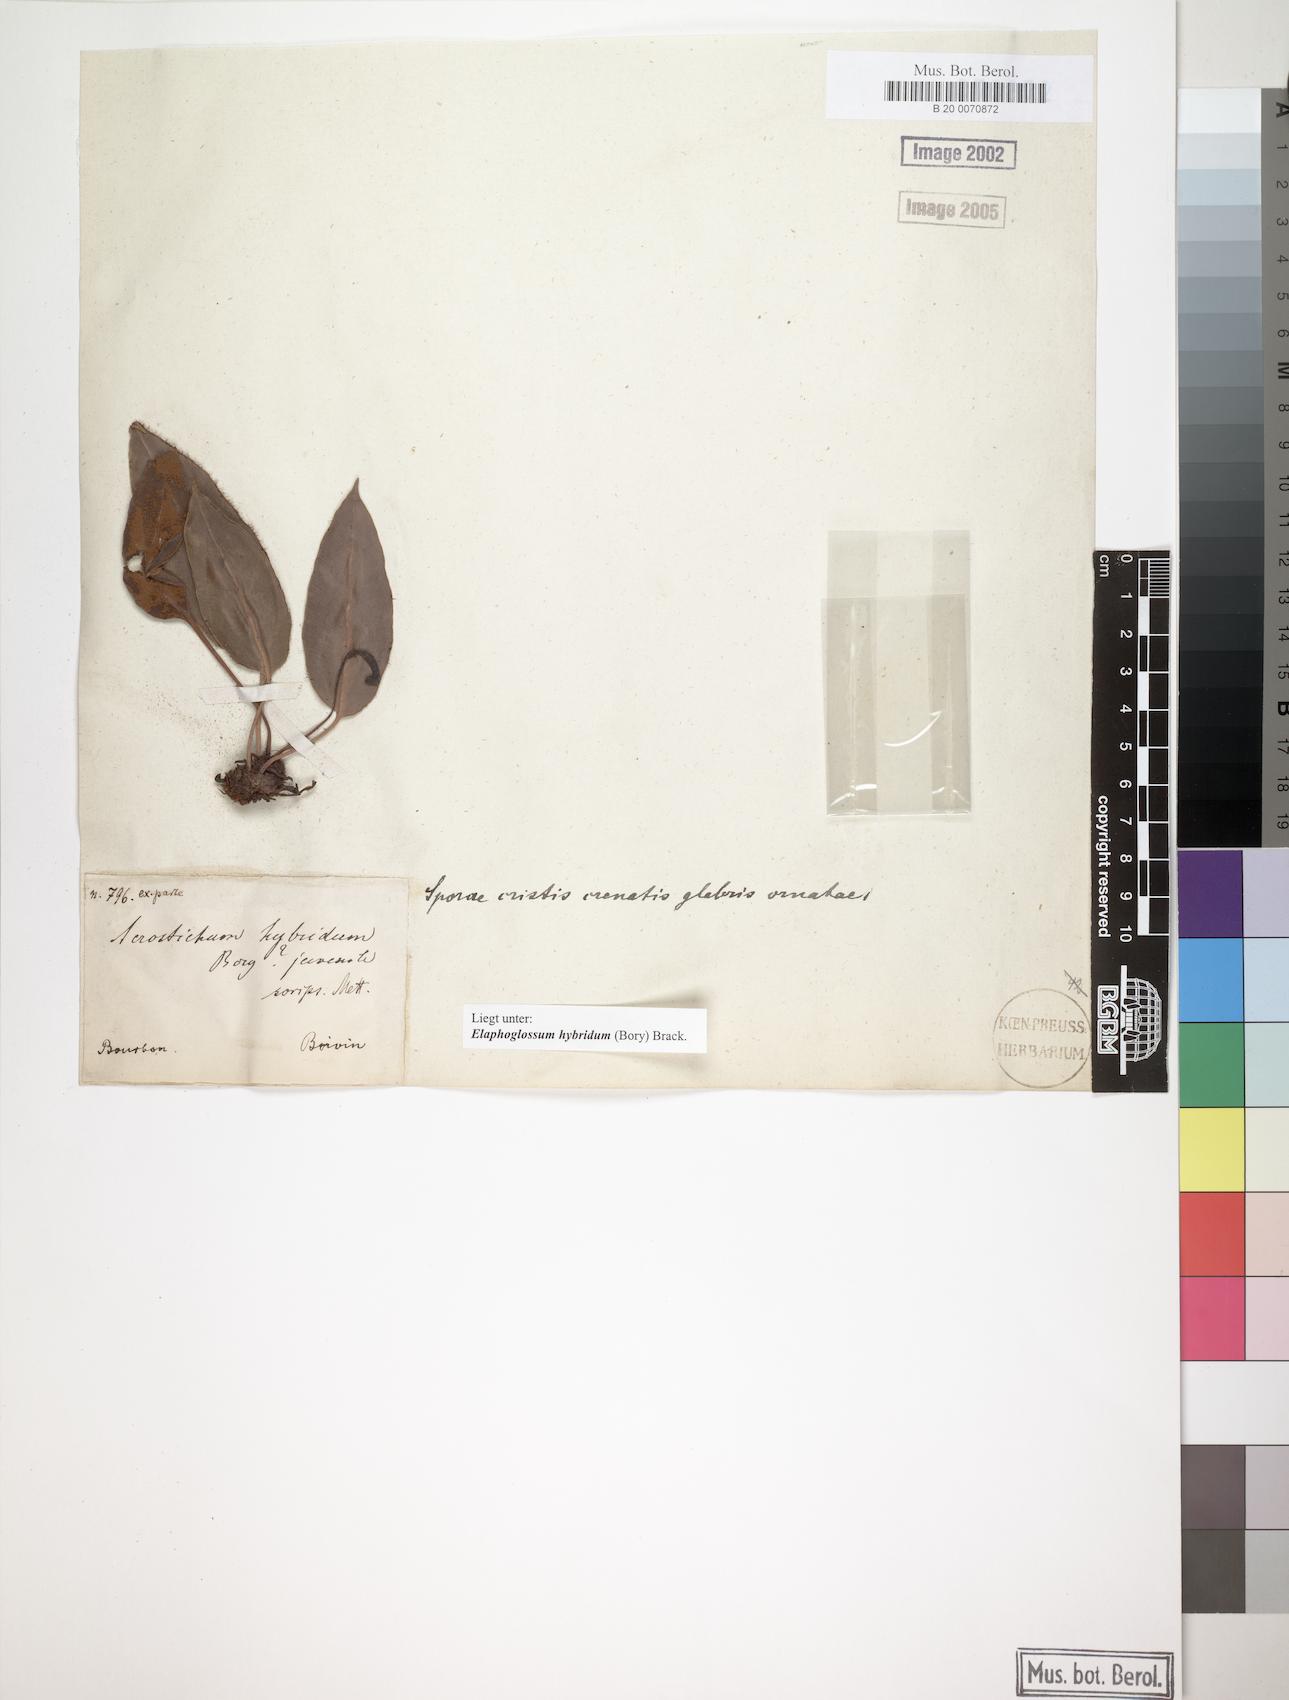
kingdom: Plantae
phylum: Tracheophyta
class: Polypodiopsida
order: Polypodiales
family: Dryopteridaceae
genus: Elaphoglossum
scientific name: Elaphoglossum hybridum
